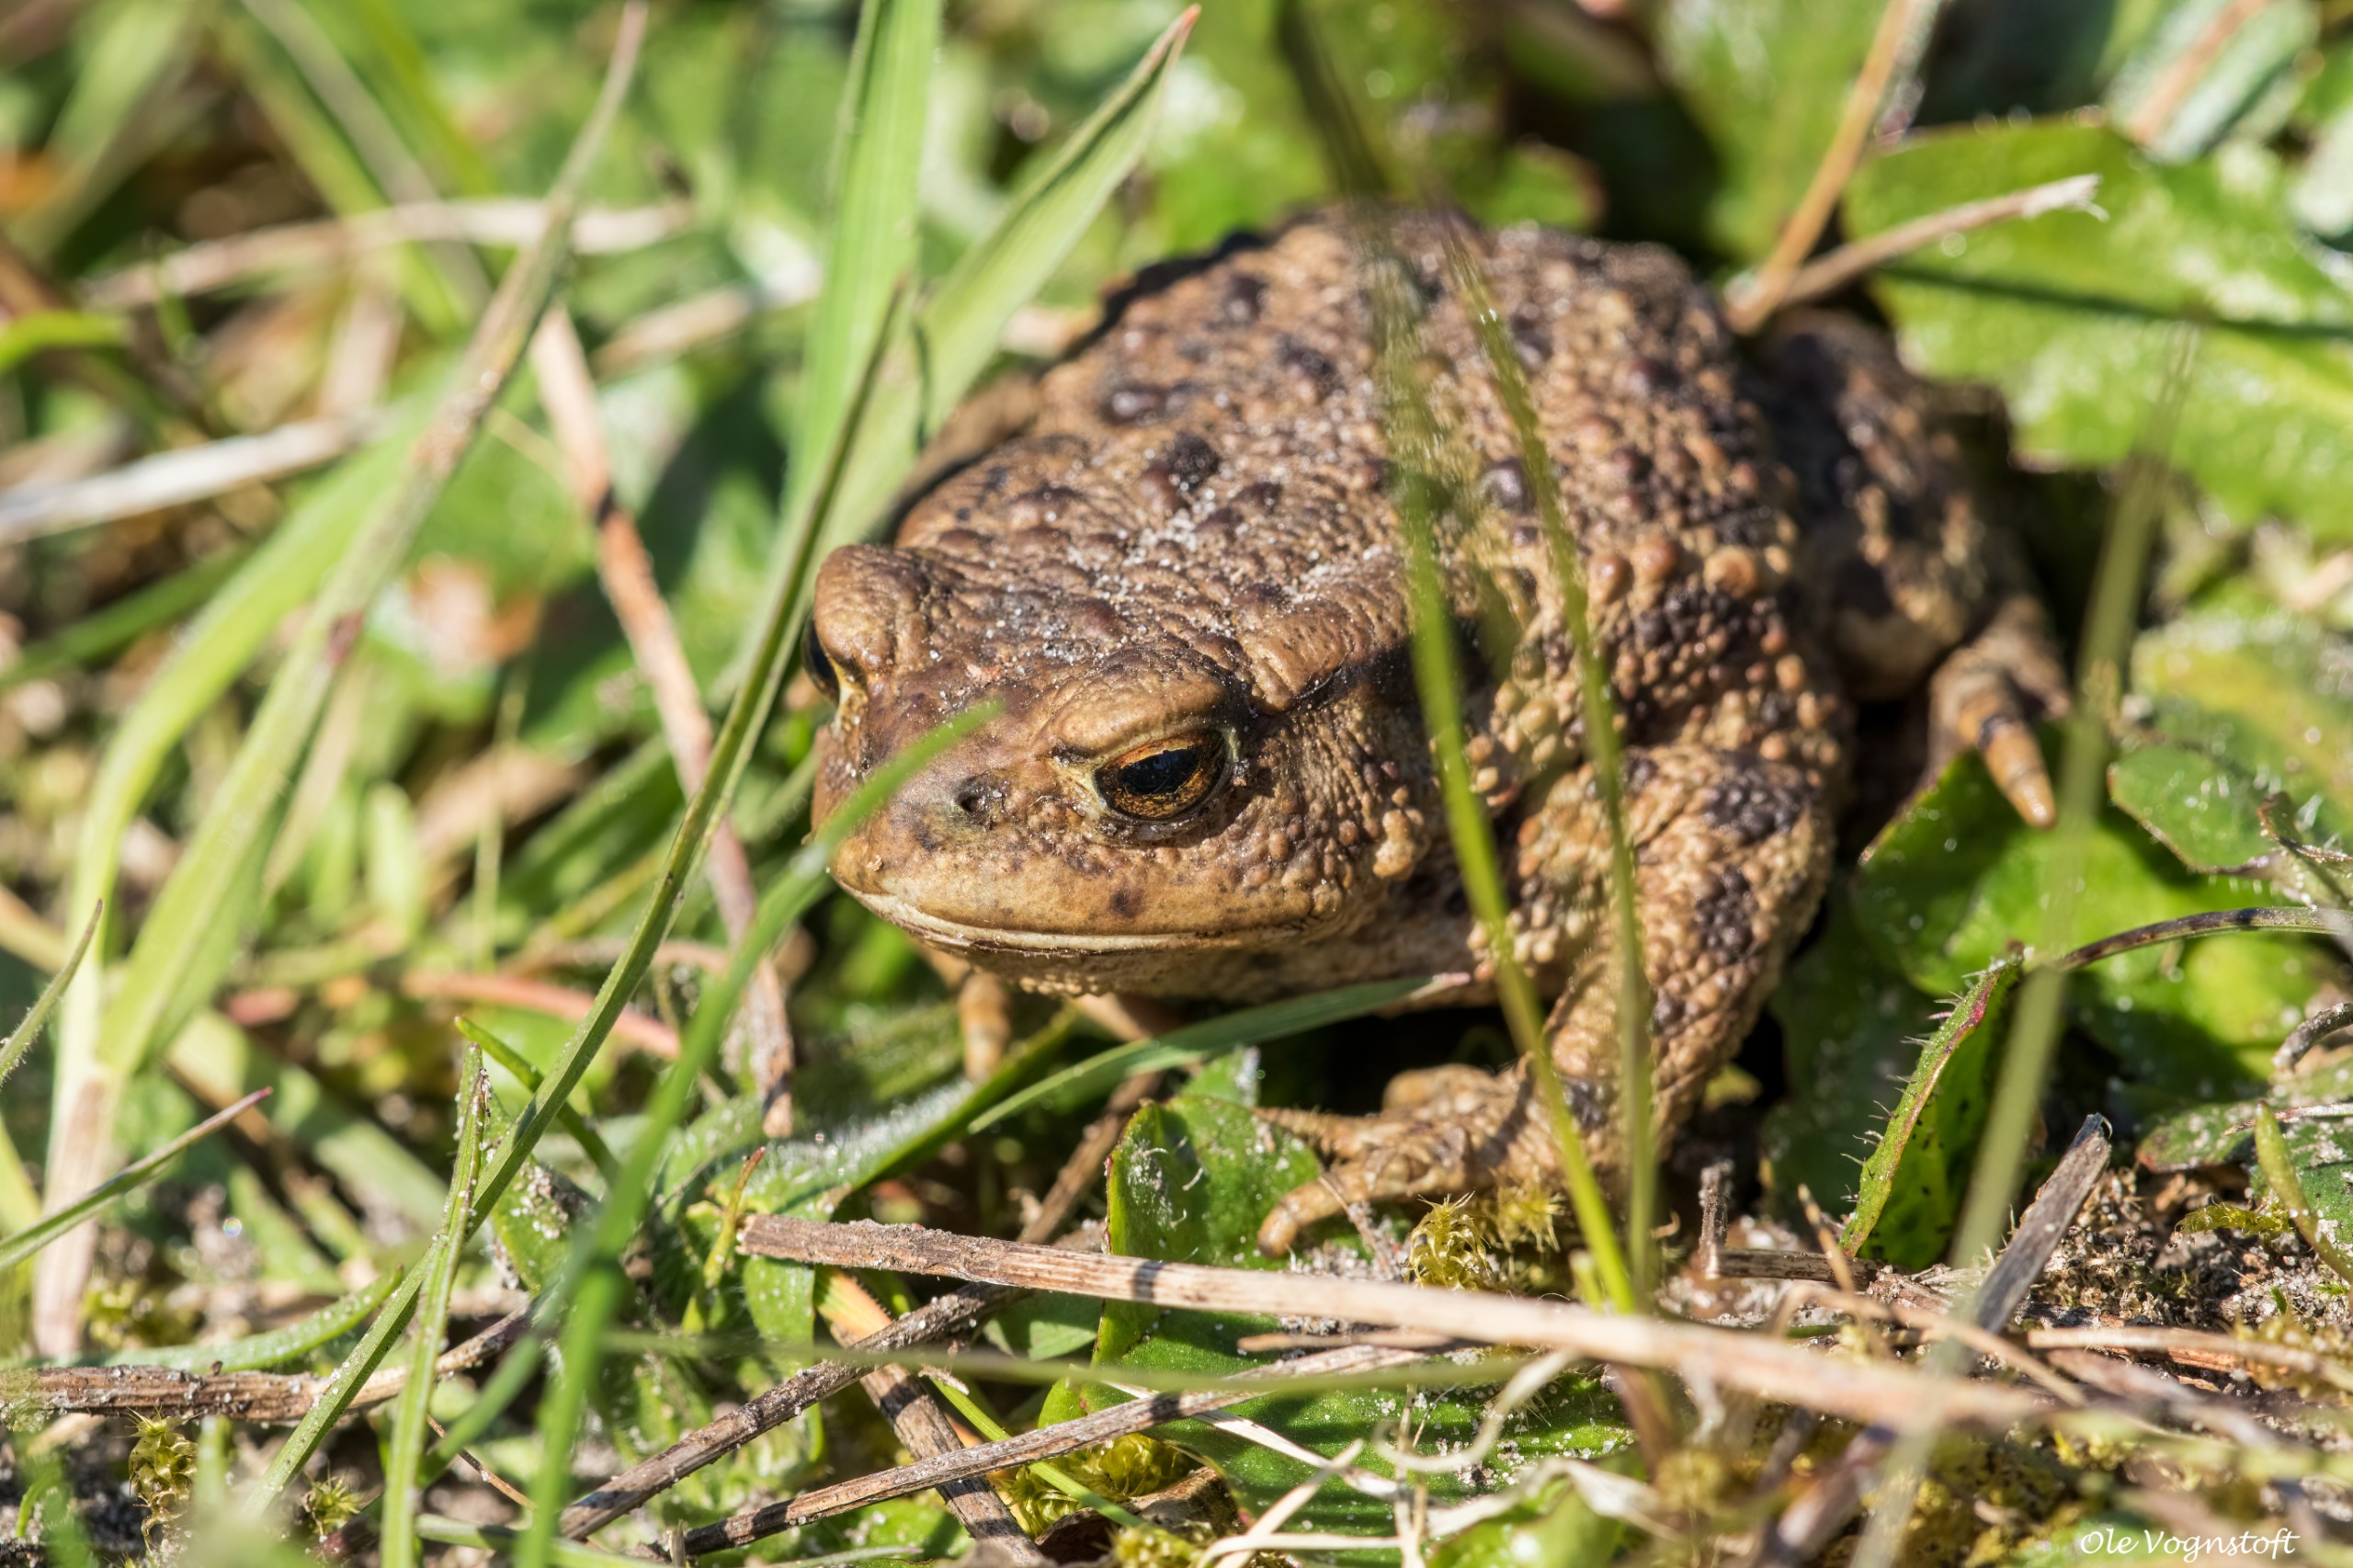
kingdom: Animalia
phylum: Chordata
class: Amphibia
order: Anura
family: Bufonidae
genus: Bufo
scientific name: Bufo bufo
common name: Skrubtudse
